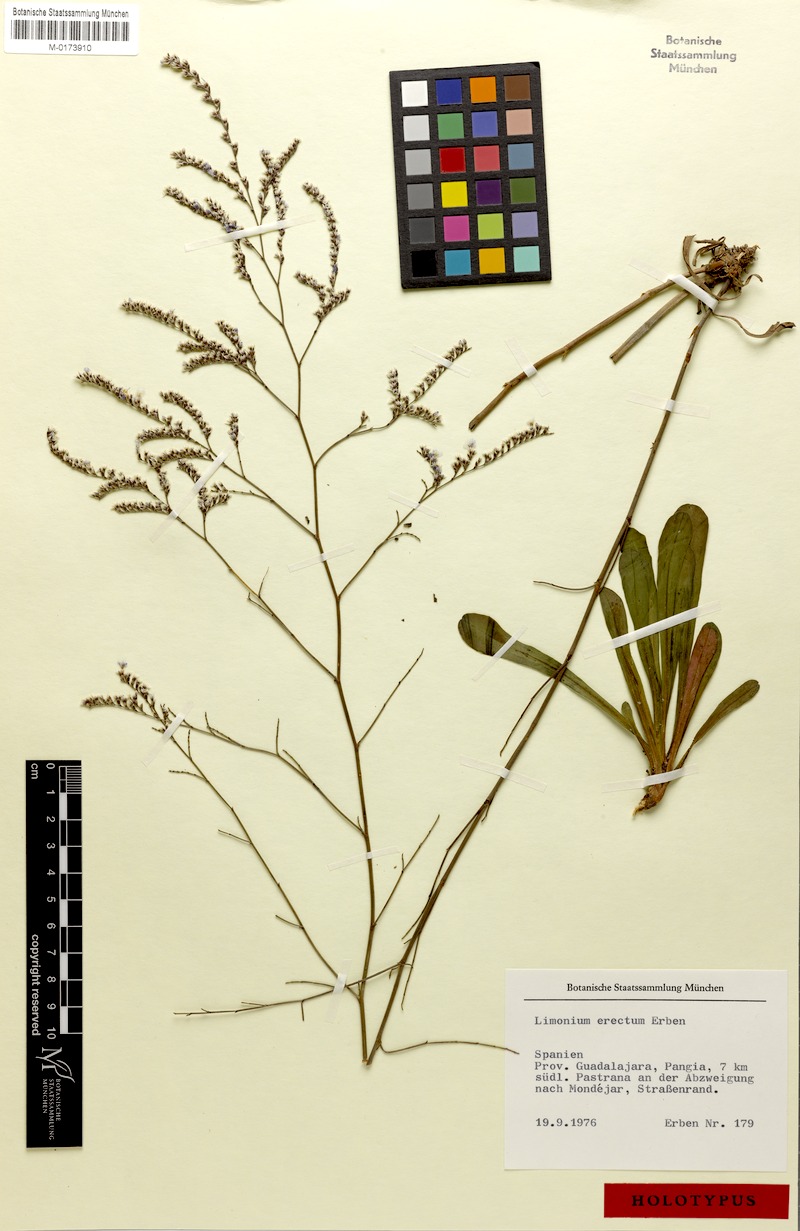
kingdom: Plantae
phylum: Tracheophyta
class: Magnoliopsida
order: Caryophyllales
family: Plumbaginaceae
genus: Limonium
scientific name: Limonium erectum
